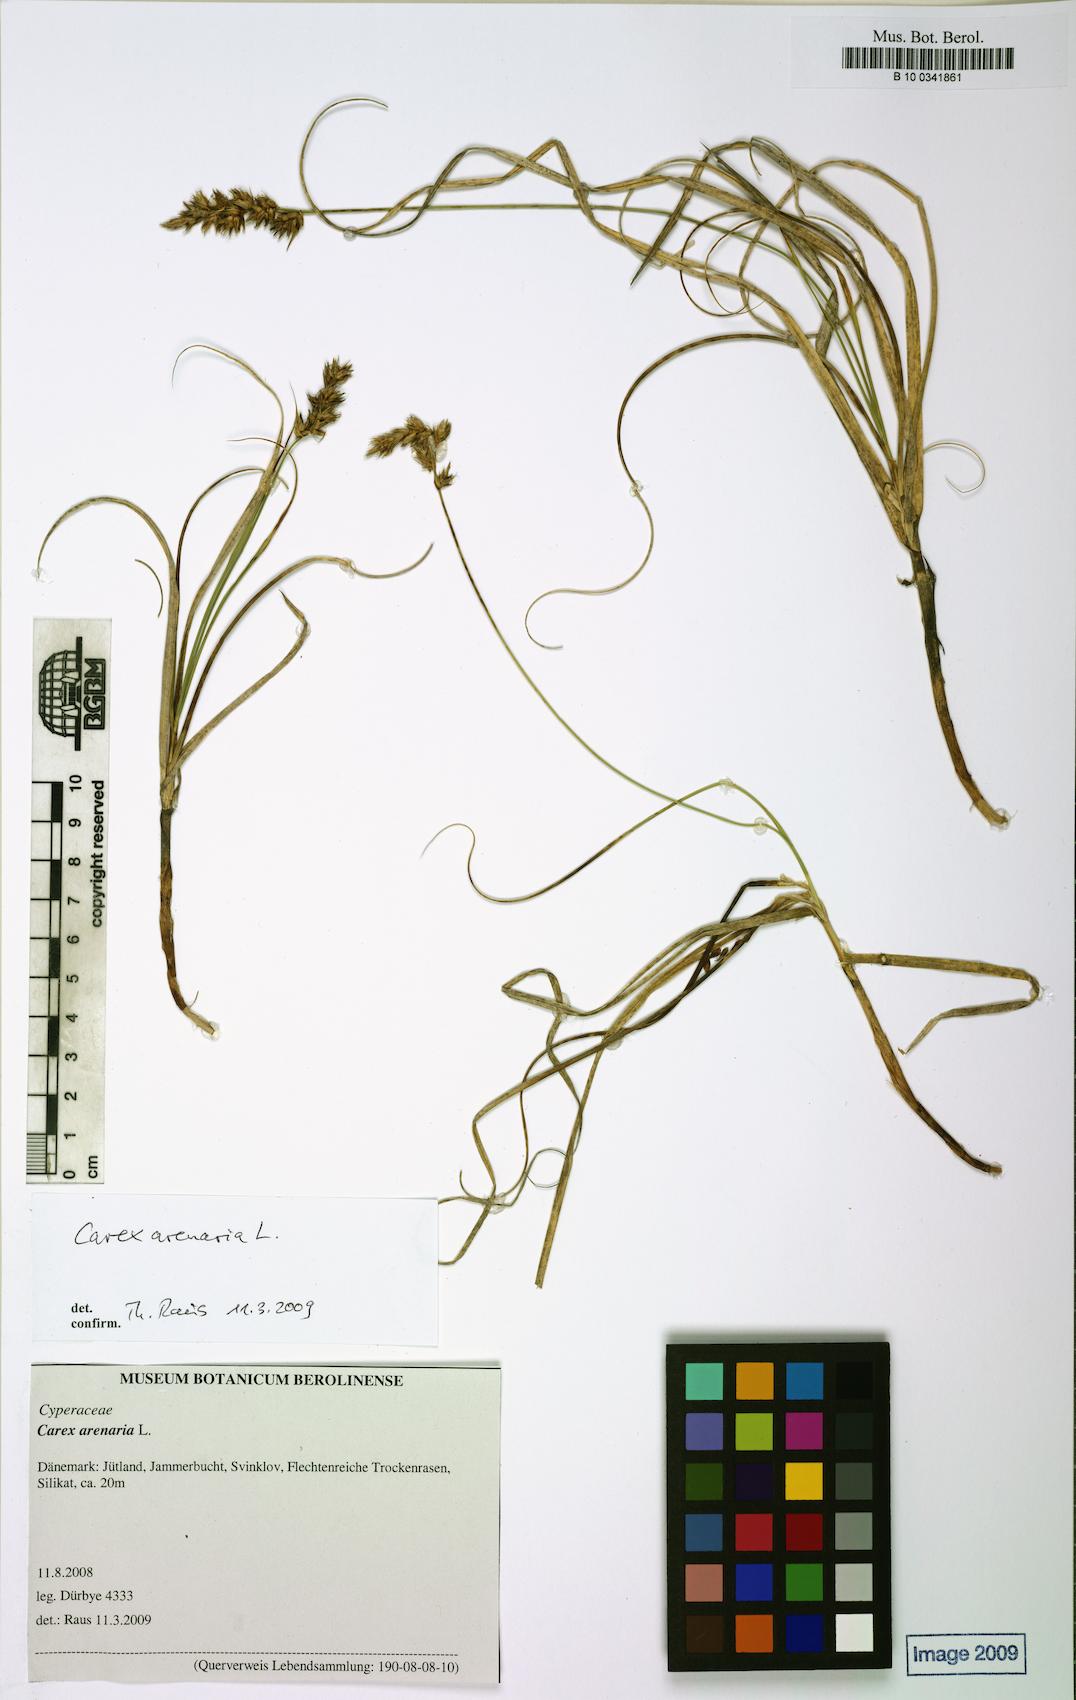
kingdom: Plantae
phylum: Tracheophyta
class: Liliopsida
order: Poales
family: Cyperaceae
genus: Carex
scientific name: Carex arenaria
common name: Sand sedge
